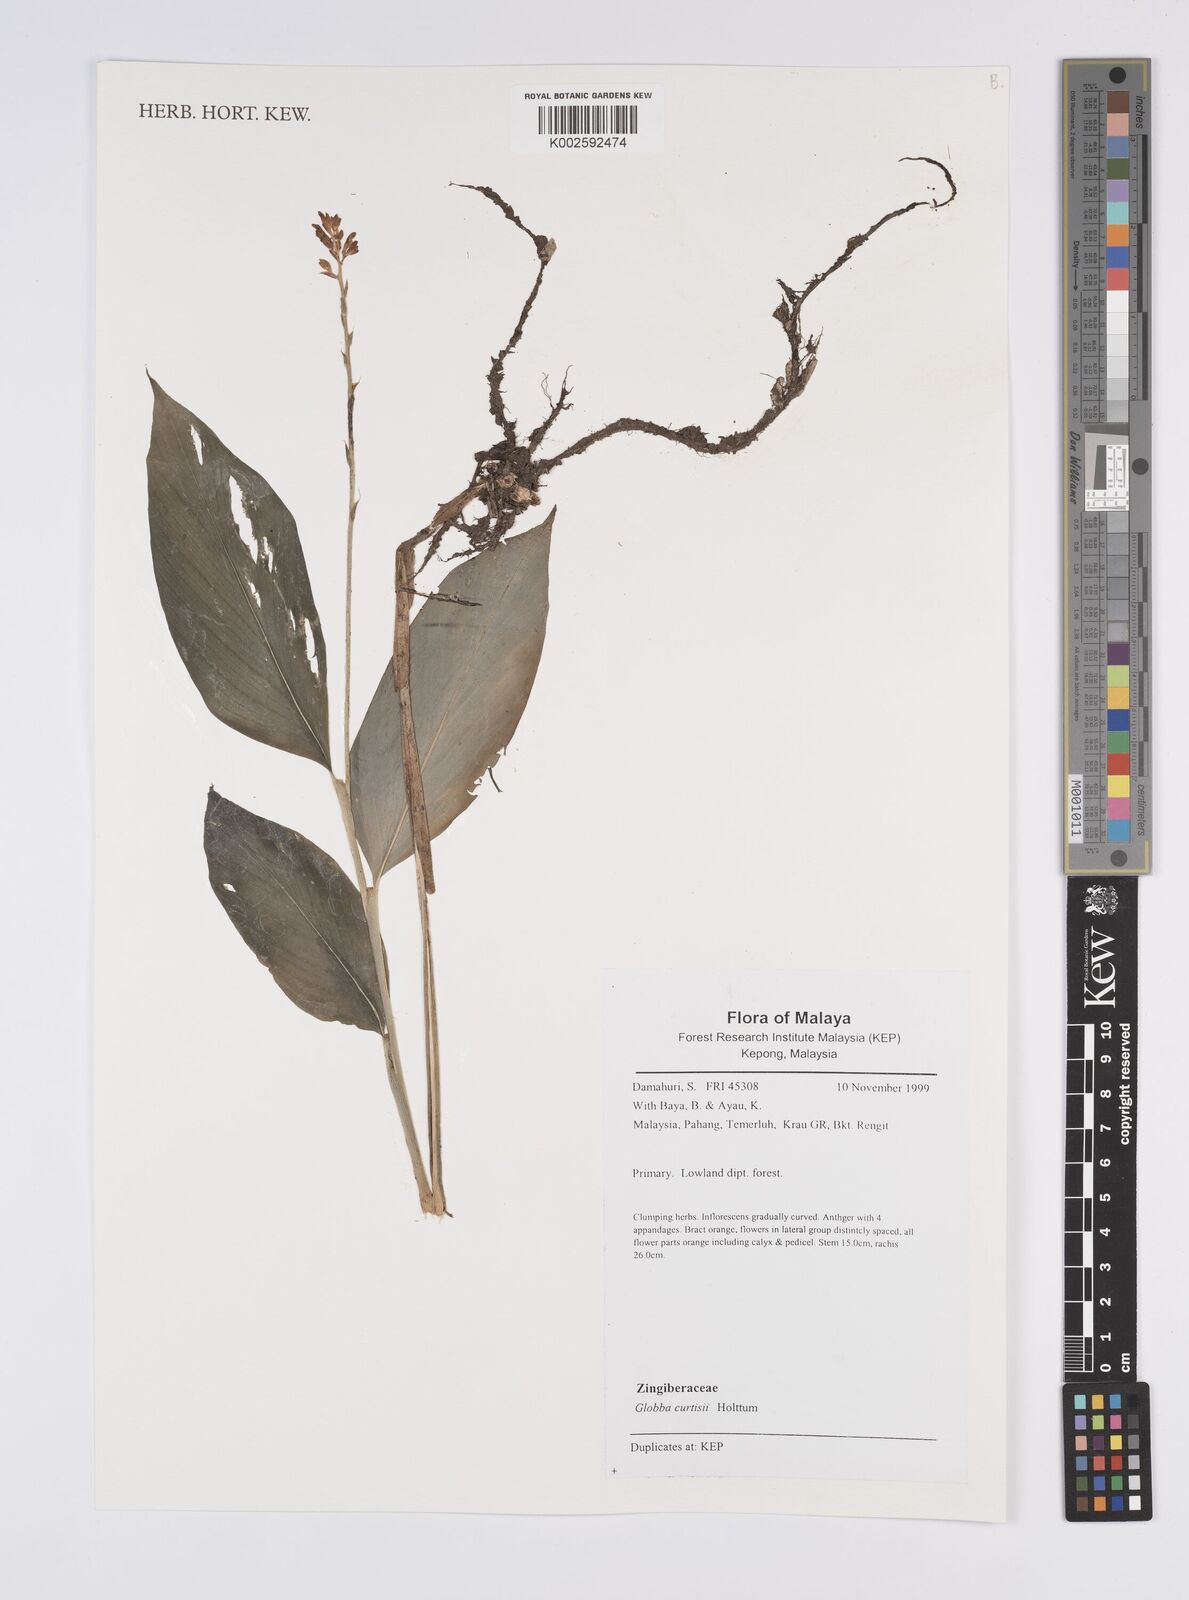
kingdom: Plantae
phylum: Tracheophyta
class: Liliopsida
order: Zingiberales
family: Zingiberaceae
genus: Globba
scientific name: Globba curtisii
